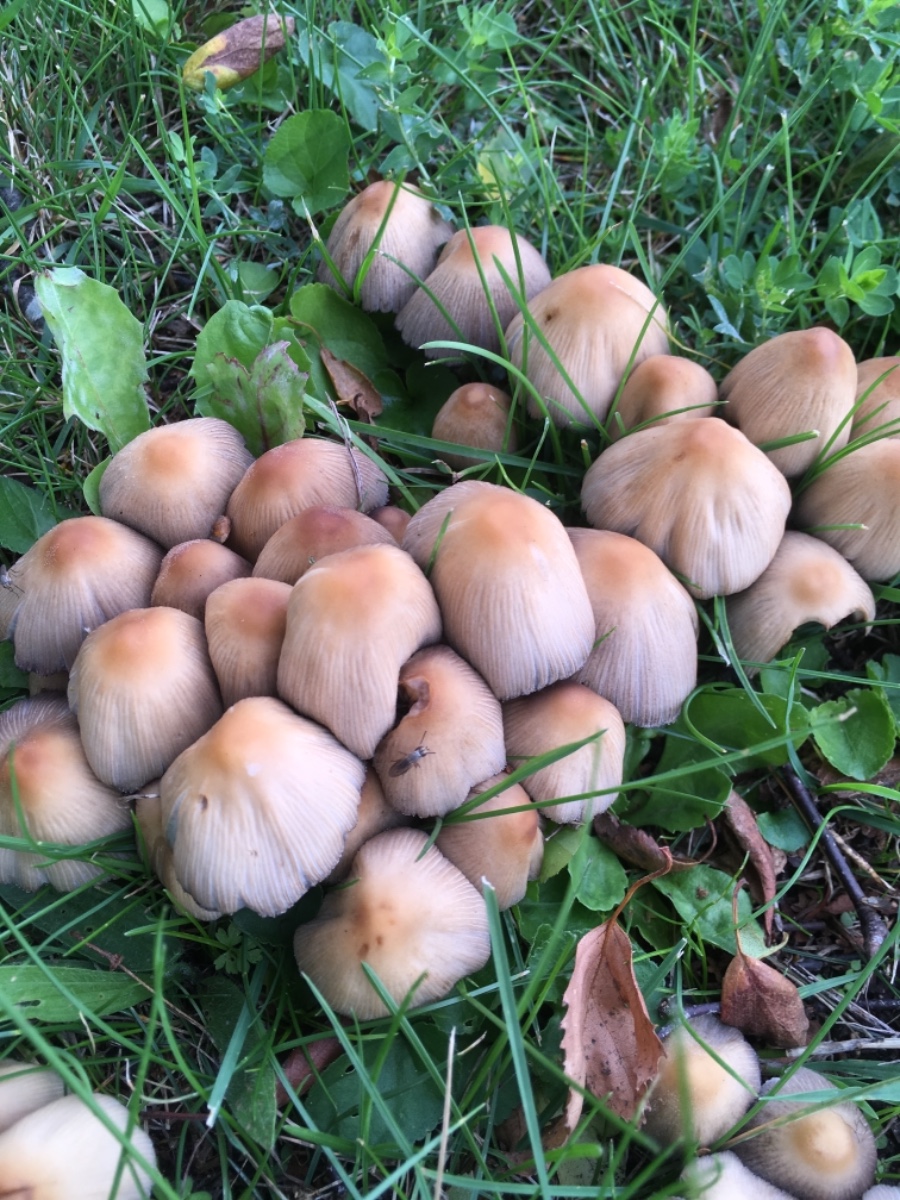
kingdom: Fungi
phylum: Basidiomycota
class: Agaricomycetes
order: Agaricales
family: Psathyrellaceae
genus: Coprinellus
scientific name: Coprinellus micaceus
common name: glimmer-blækhat
